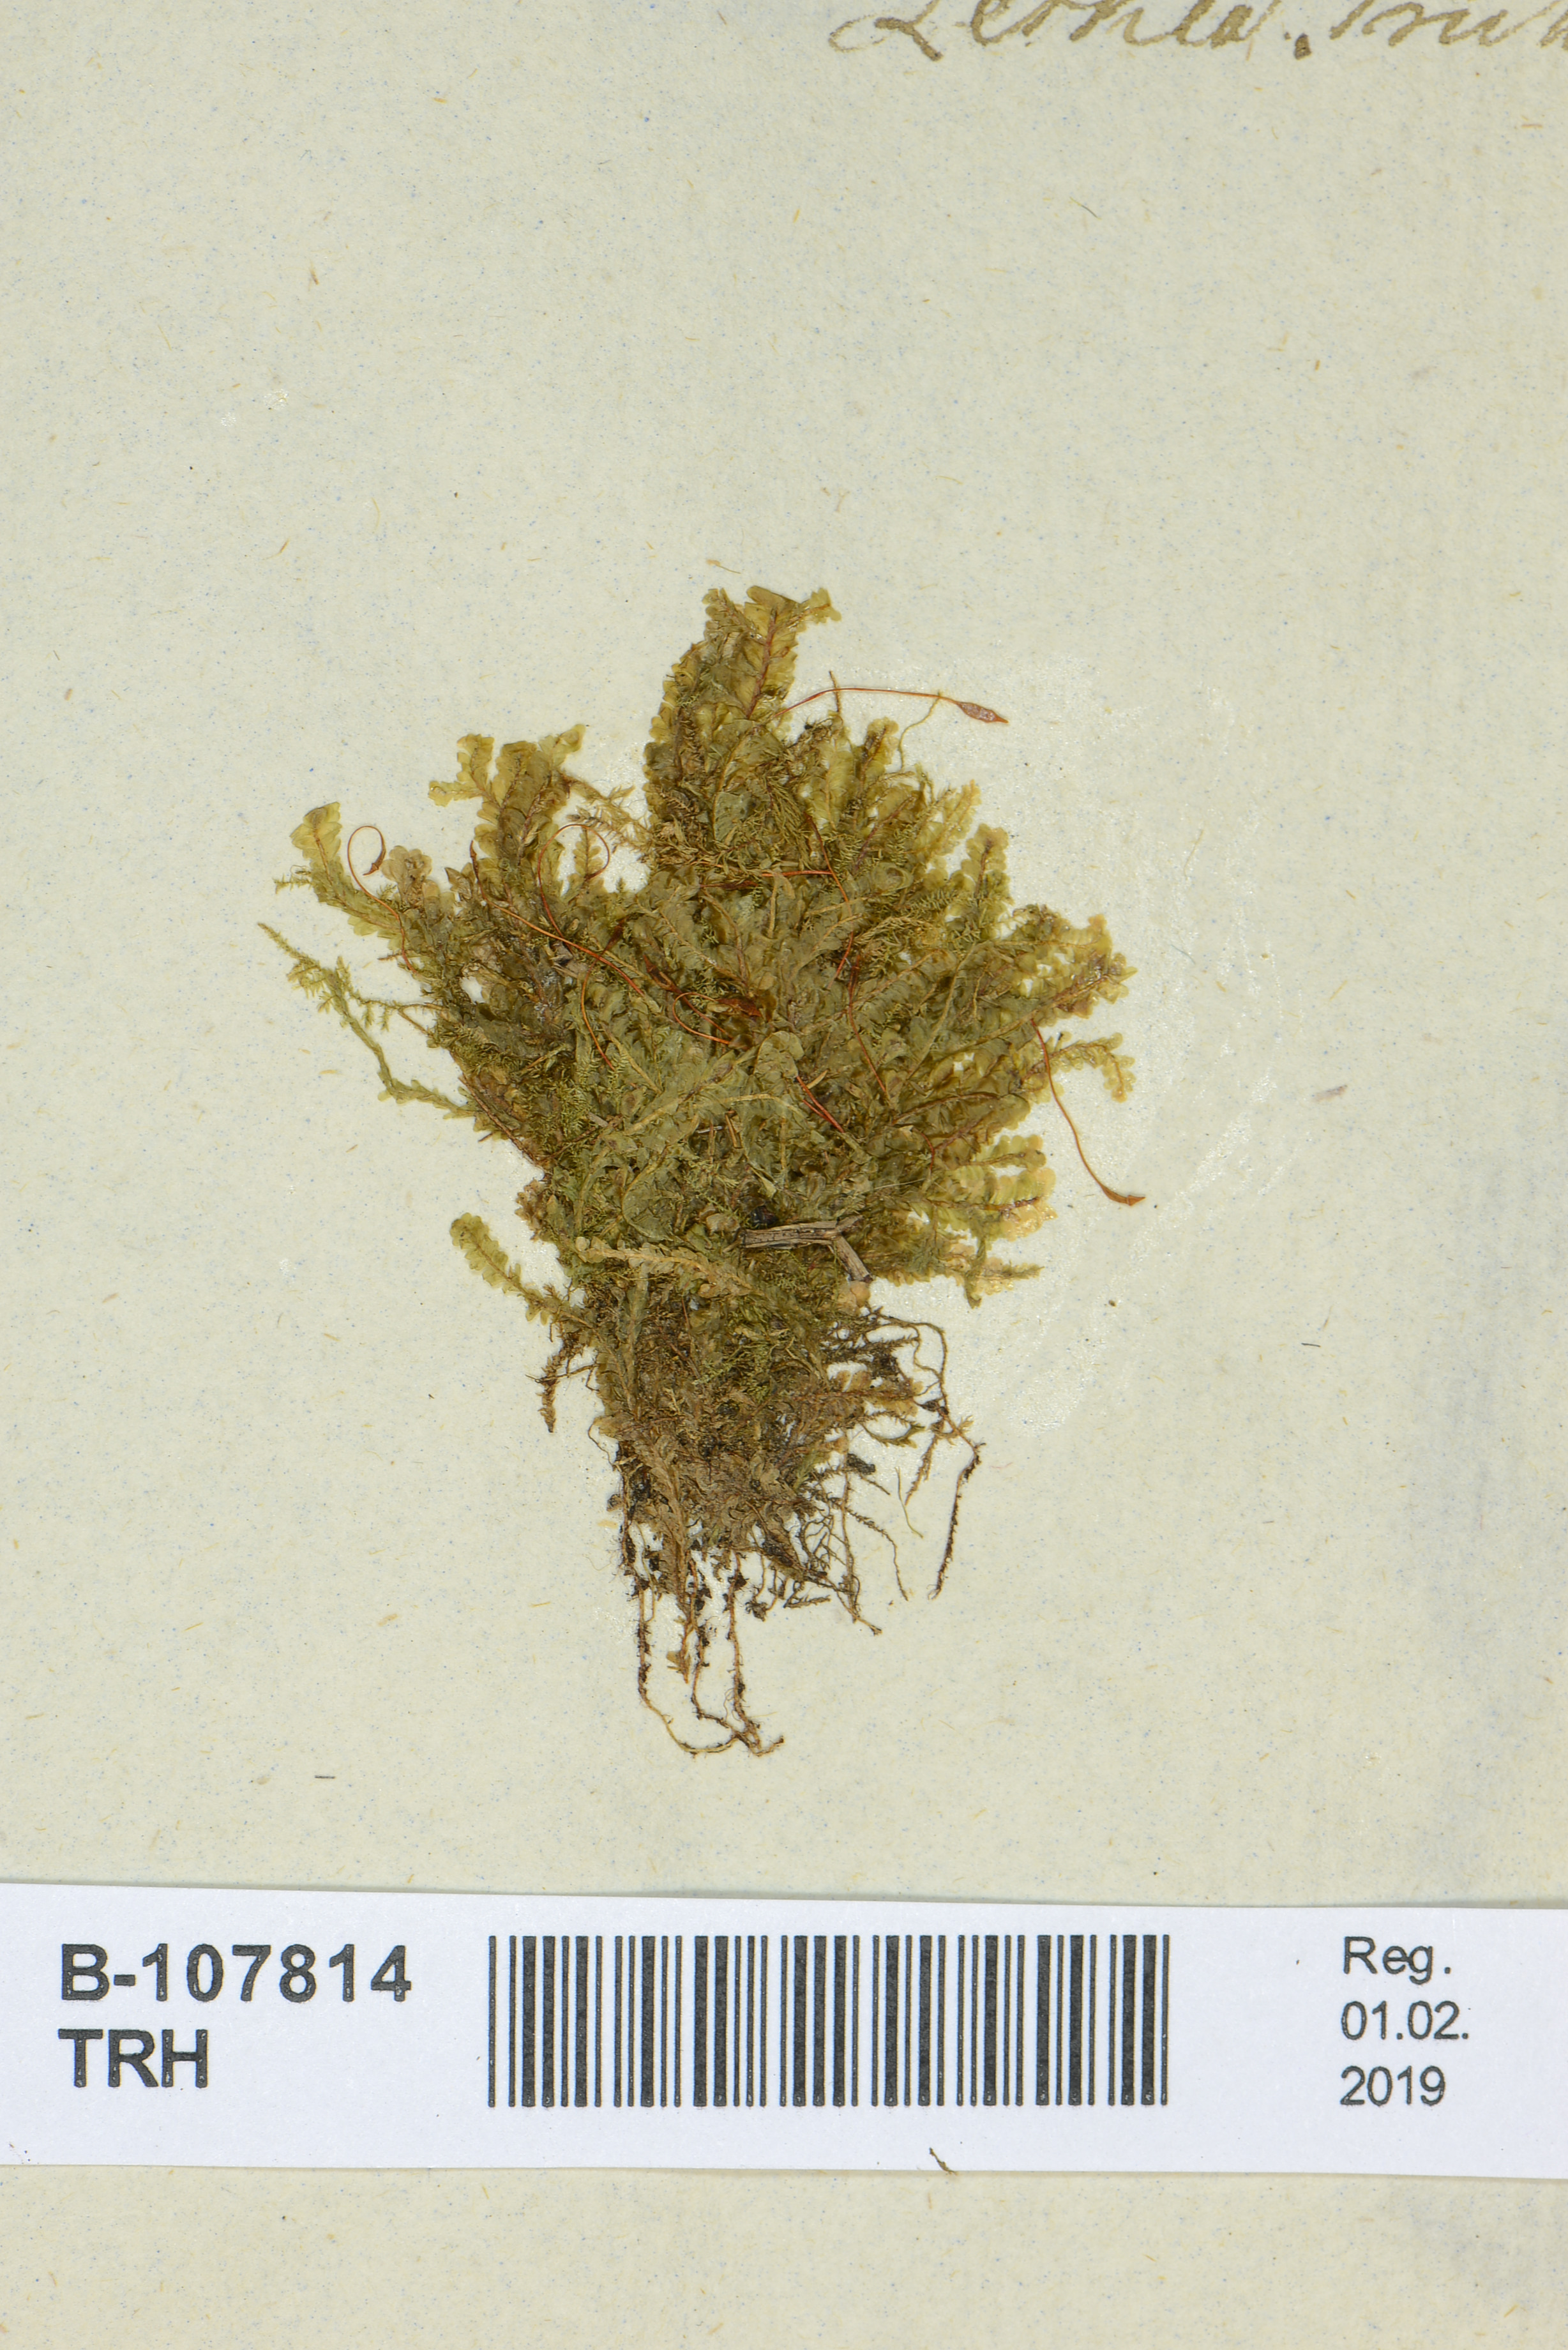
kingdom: Plantae
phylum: Bryophyta
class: Bryopsida
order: Hypnales
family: Neckeraceae
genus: Homalia
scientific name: Homalia trichomanoides
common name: Lime homalia moss
